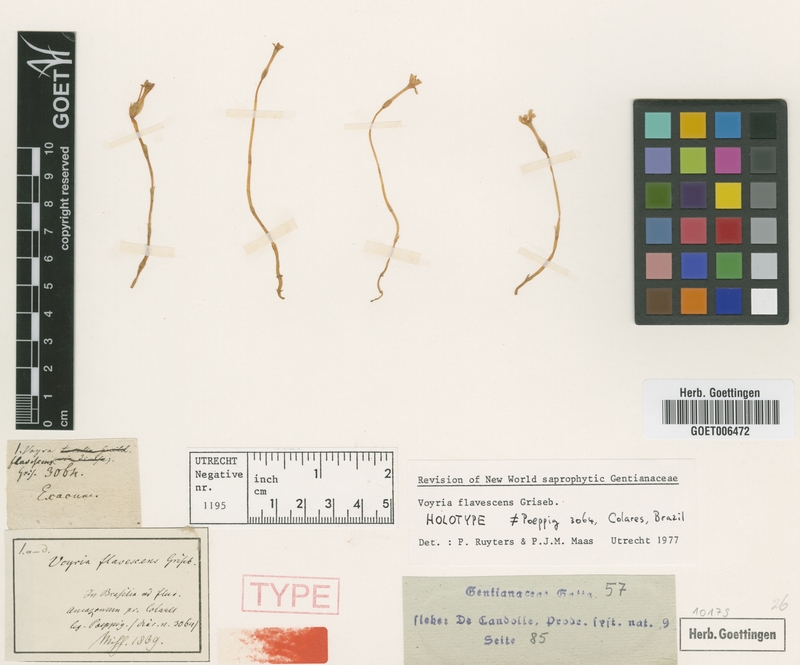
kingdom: Plantae
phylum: Tracheophyta
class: Magnoliopsida
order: Gentianales
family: Gentianaceae
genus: Voyria
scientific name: Voyria flavescens
